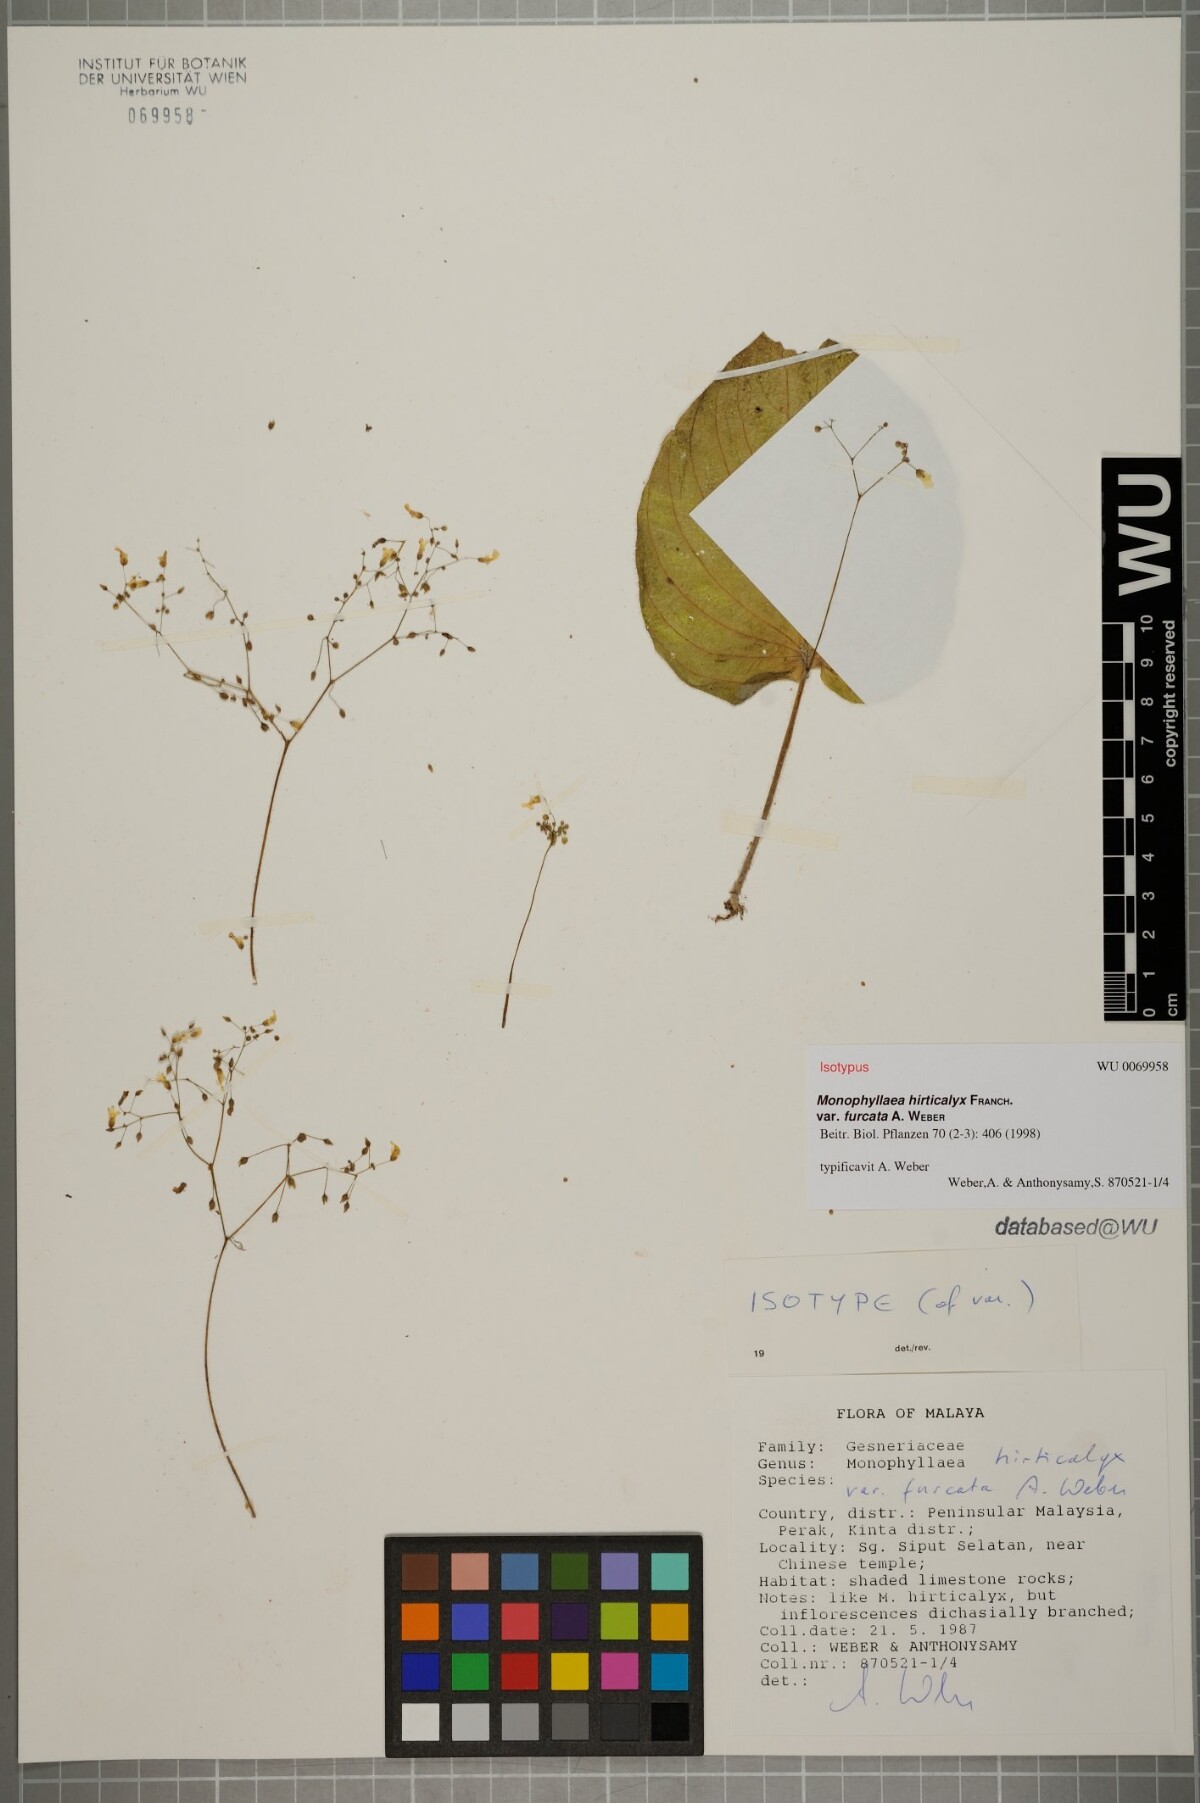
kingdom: Plantae
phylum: Tracheophyta
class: Magnoliopsida
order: Lamiales
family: Gesneriaceae
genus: Monophyllaea
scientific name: Monophyllaea hirticalyx
